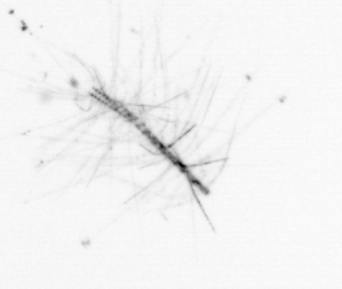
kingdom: Chromista
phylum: Ochrophyta
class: Bacillariophyceae
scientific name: Bacillariophyceae
